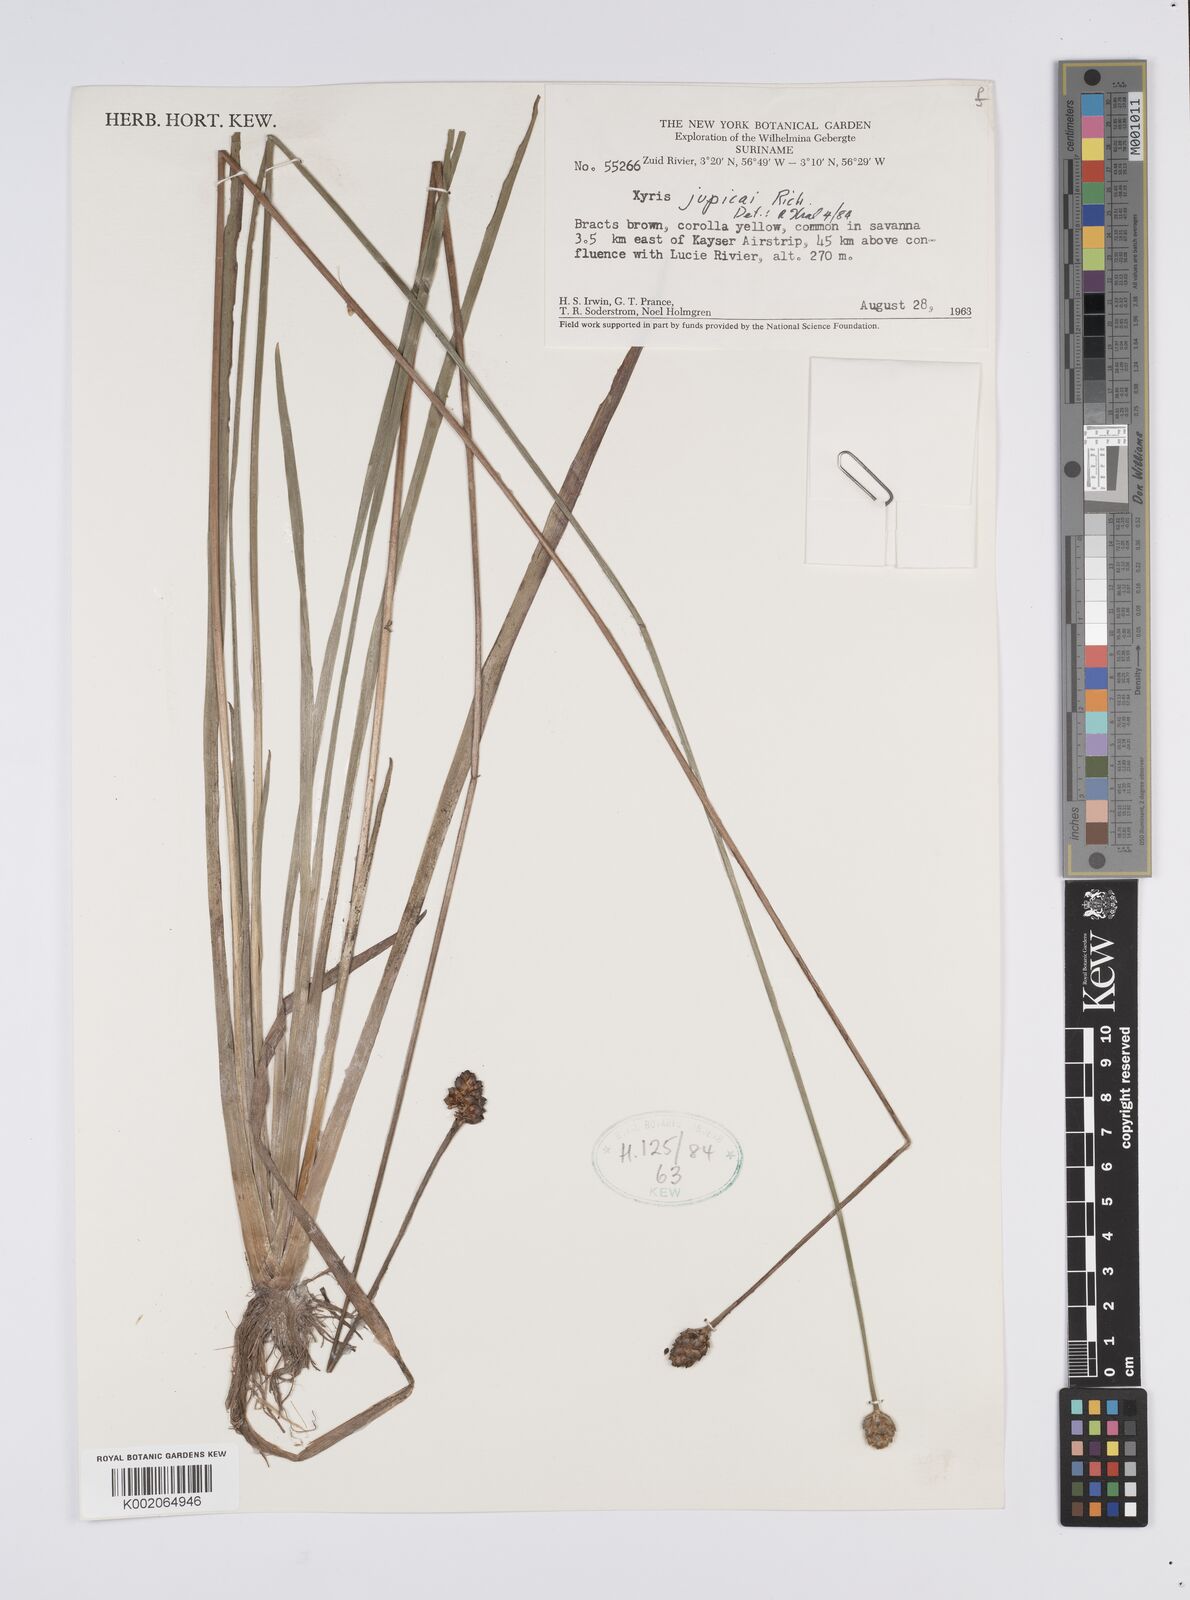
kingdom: Plantae
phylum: Tracheophyta
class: Liliopsida
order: Poales
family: Xyridaceae
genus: Xyris
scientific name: Xyris jupicai
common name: Richard's yelloweyed grass
